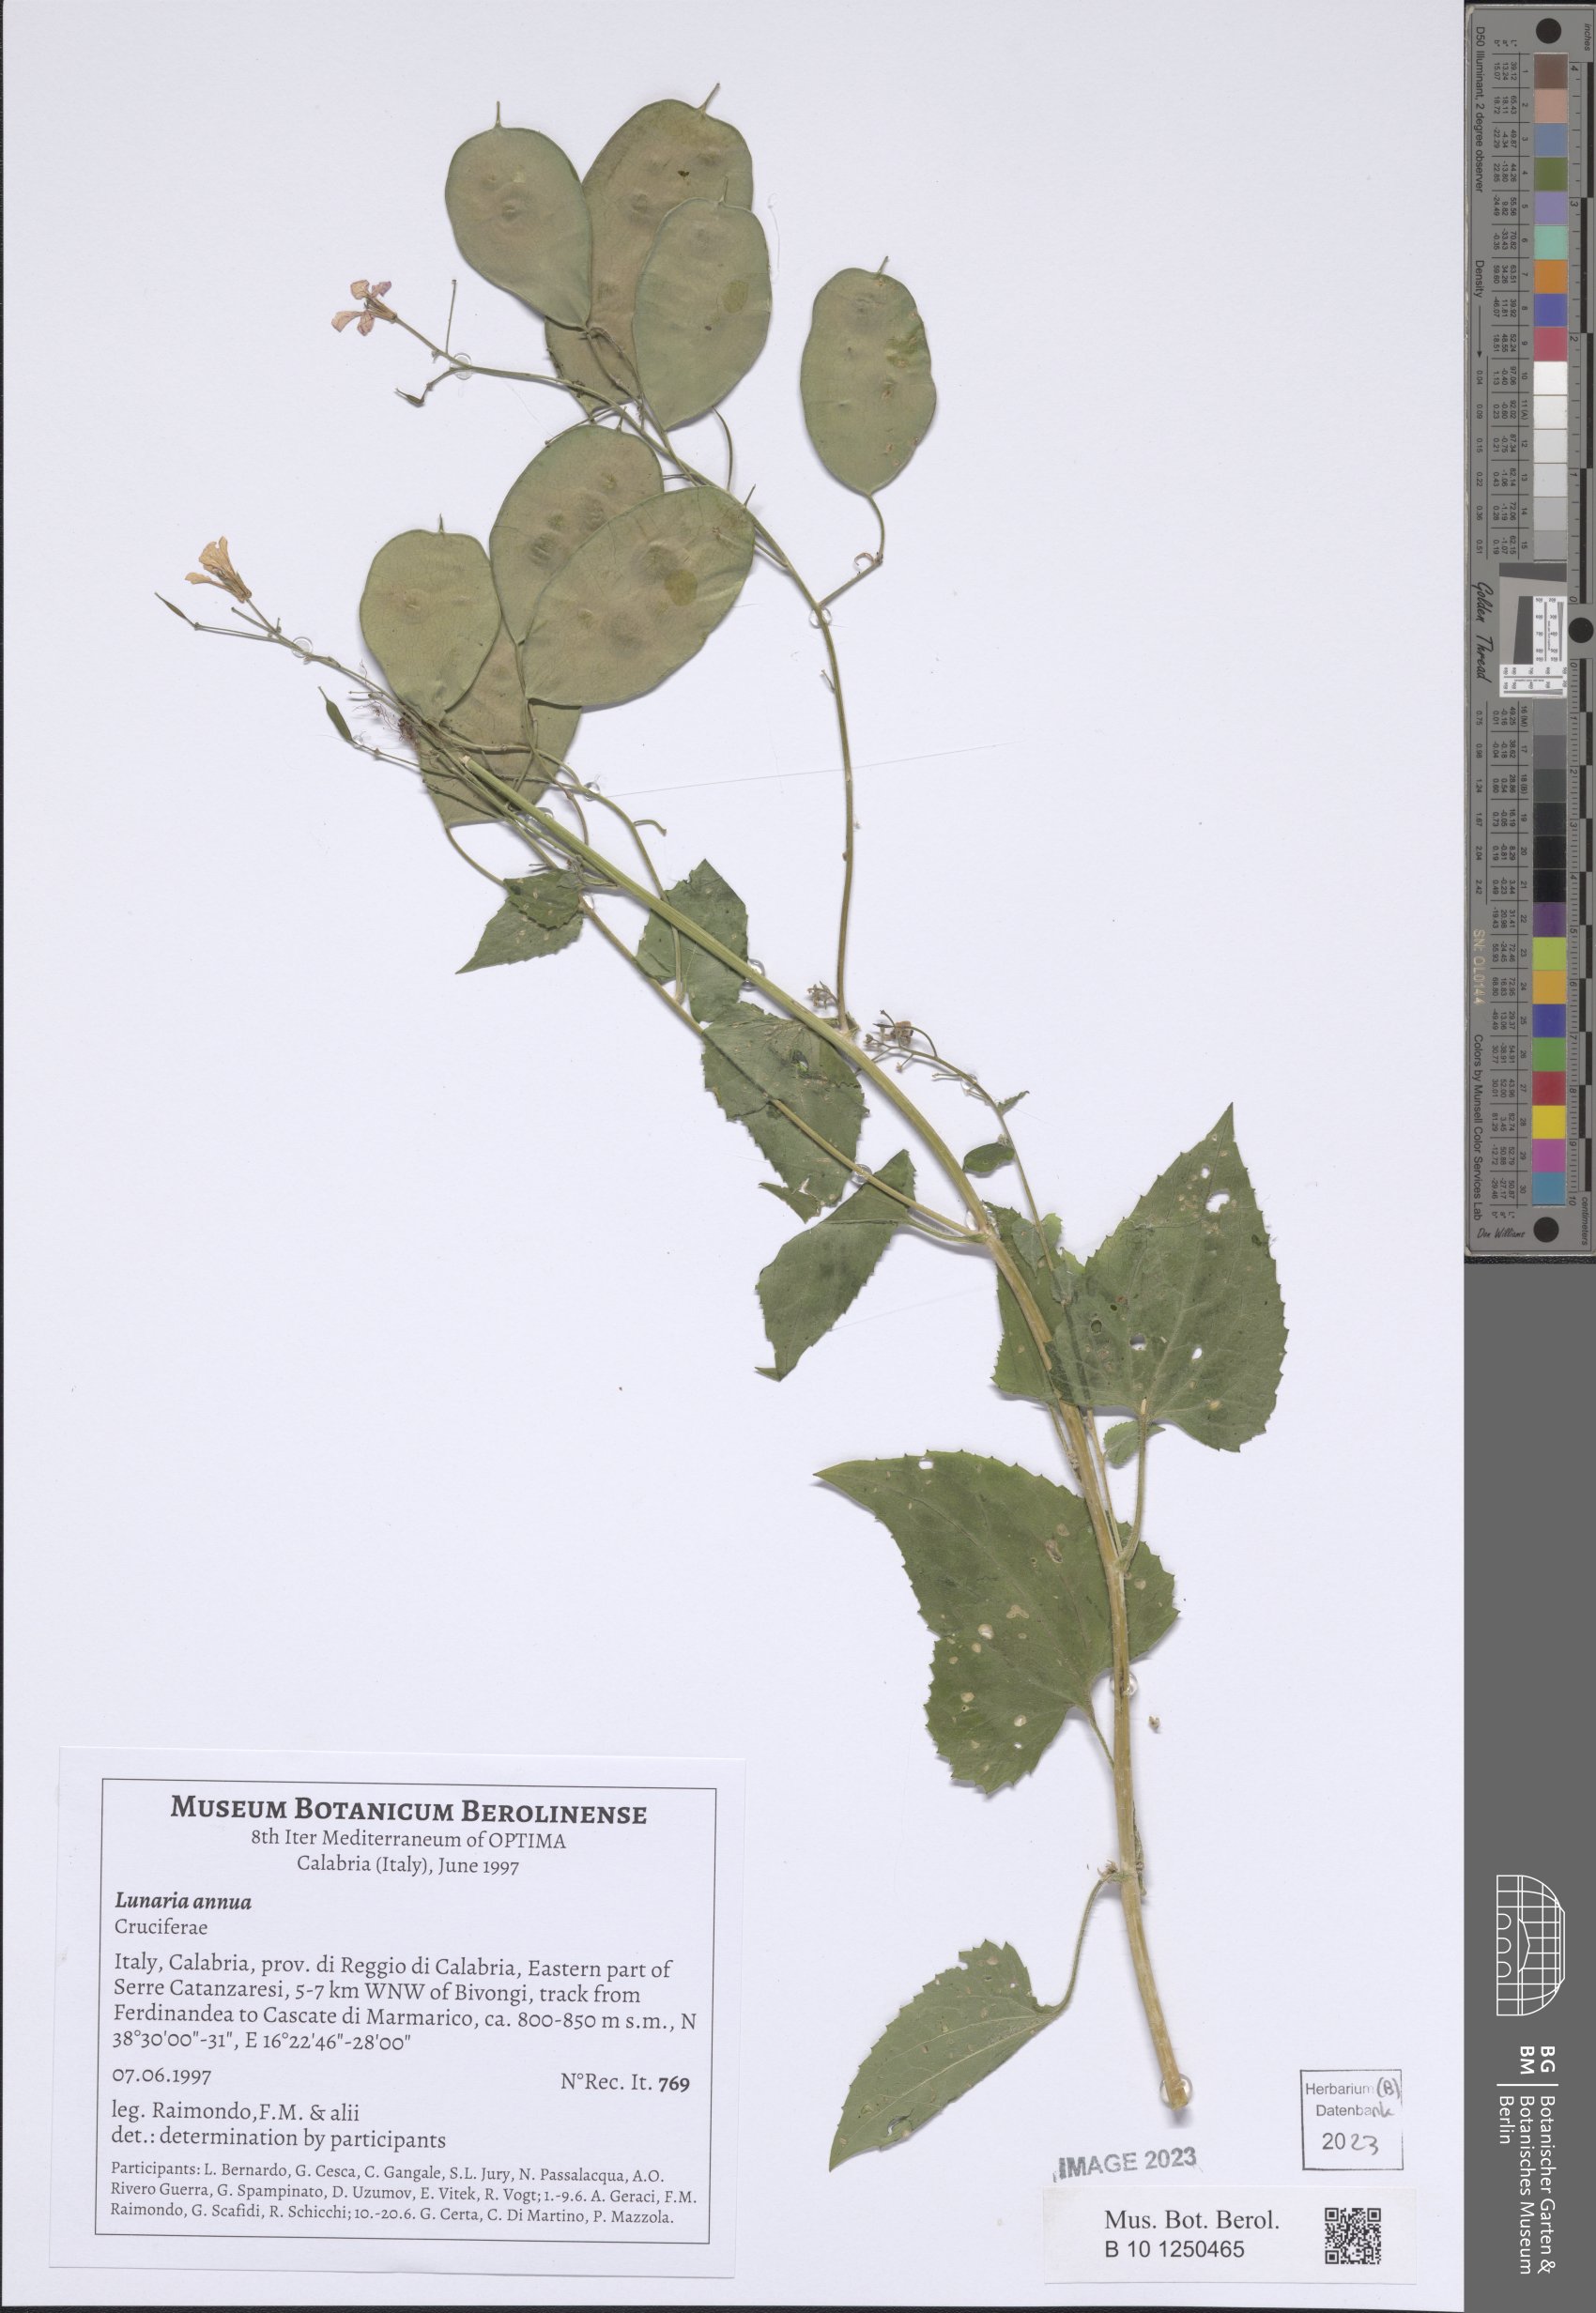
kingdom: Plantae
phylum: Tracheophyta
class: Magnoliopsida
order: Brassicales
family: Brassicaceae
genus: Lunaria
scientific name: Lunaria annua
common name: Honesty
